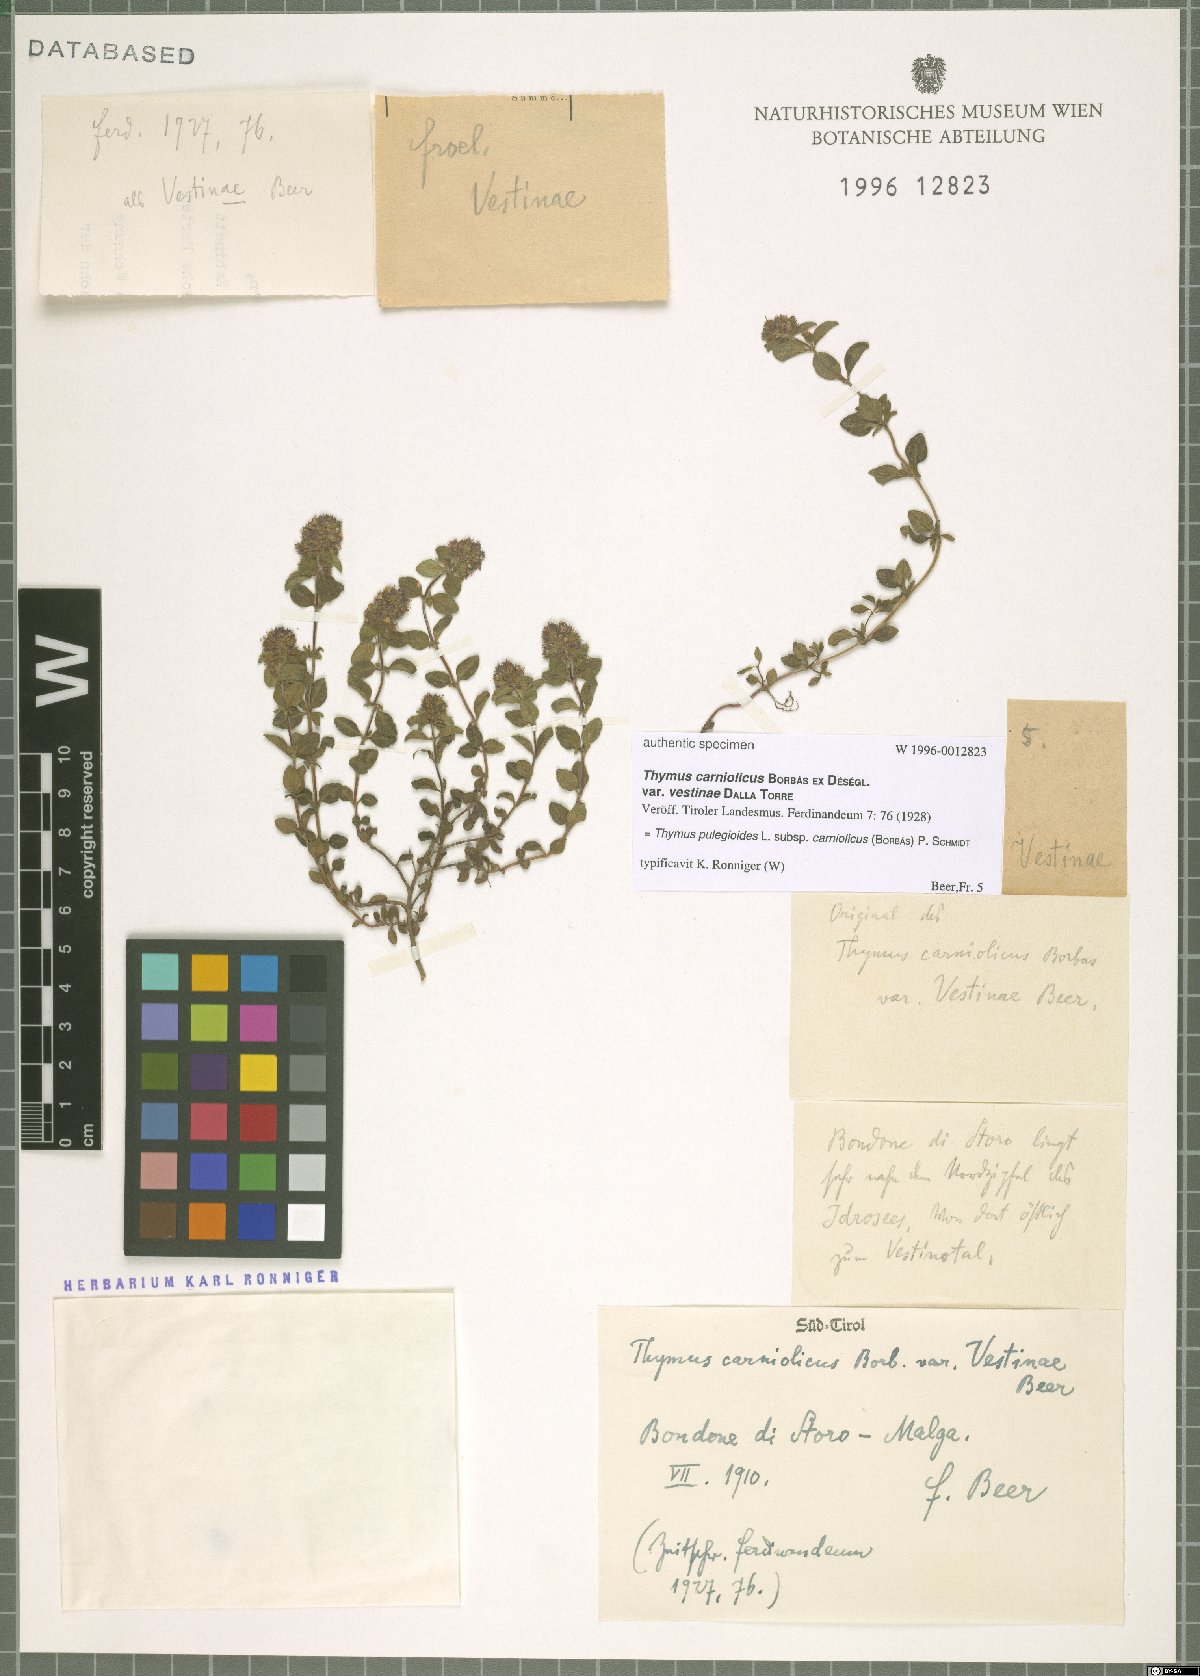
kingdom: Plantae
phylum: Tracheophyta
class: Magnoliopsida
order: Lamiales
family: Lamiaceae
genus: Thymus
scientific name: Thymus pannonicus
